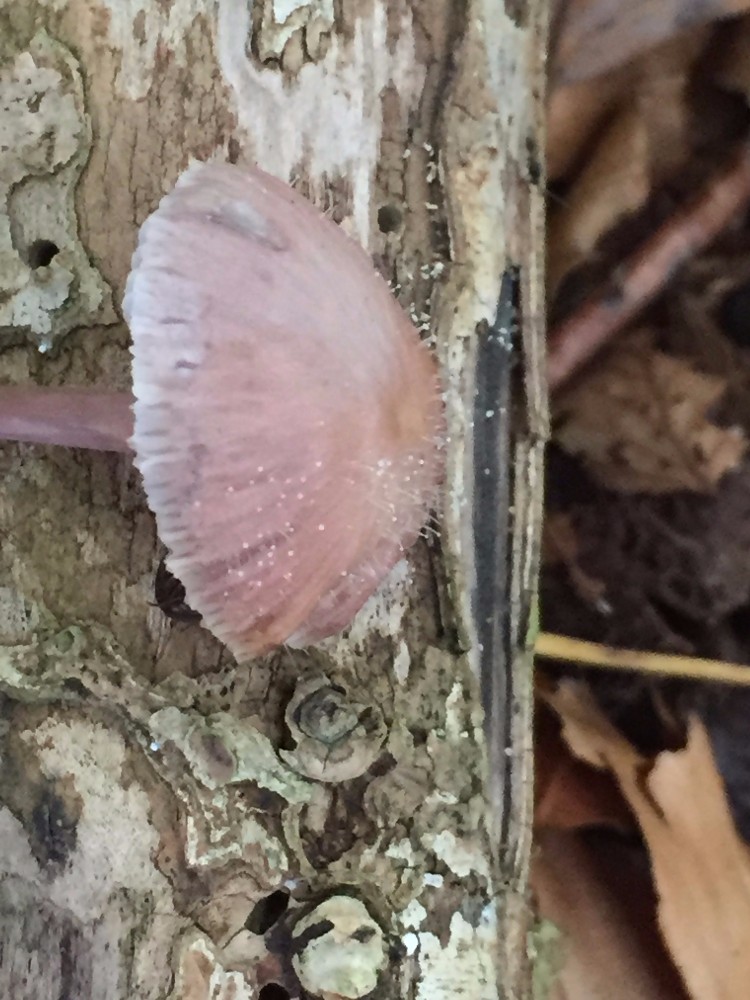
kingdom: Fungi
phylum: Mucoromycota
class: Mucoromycetes
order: Mucorales
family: Phycomycetaceae
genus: Spinellus
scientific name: Spinellus fusiger
